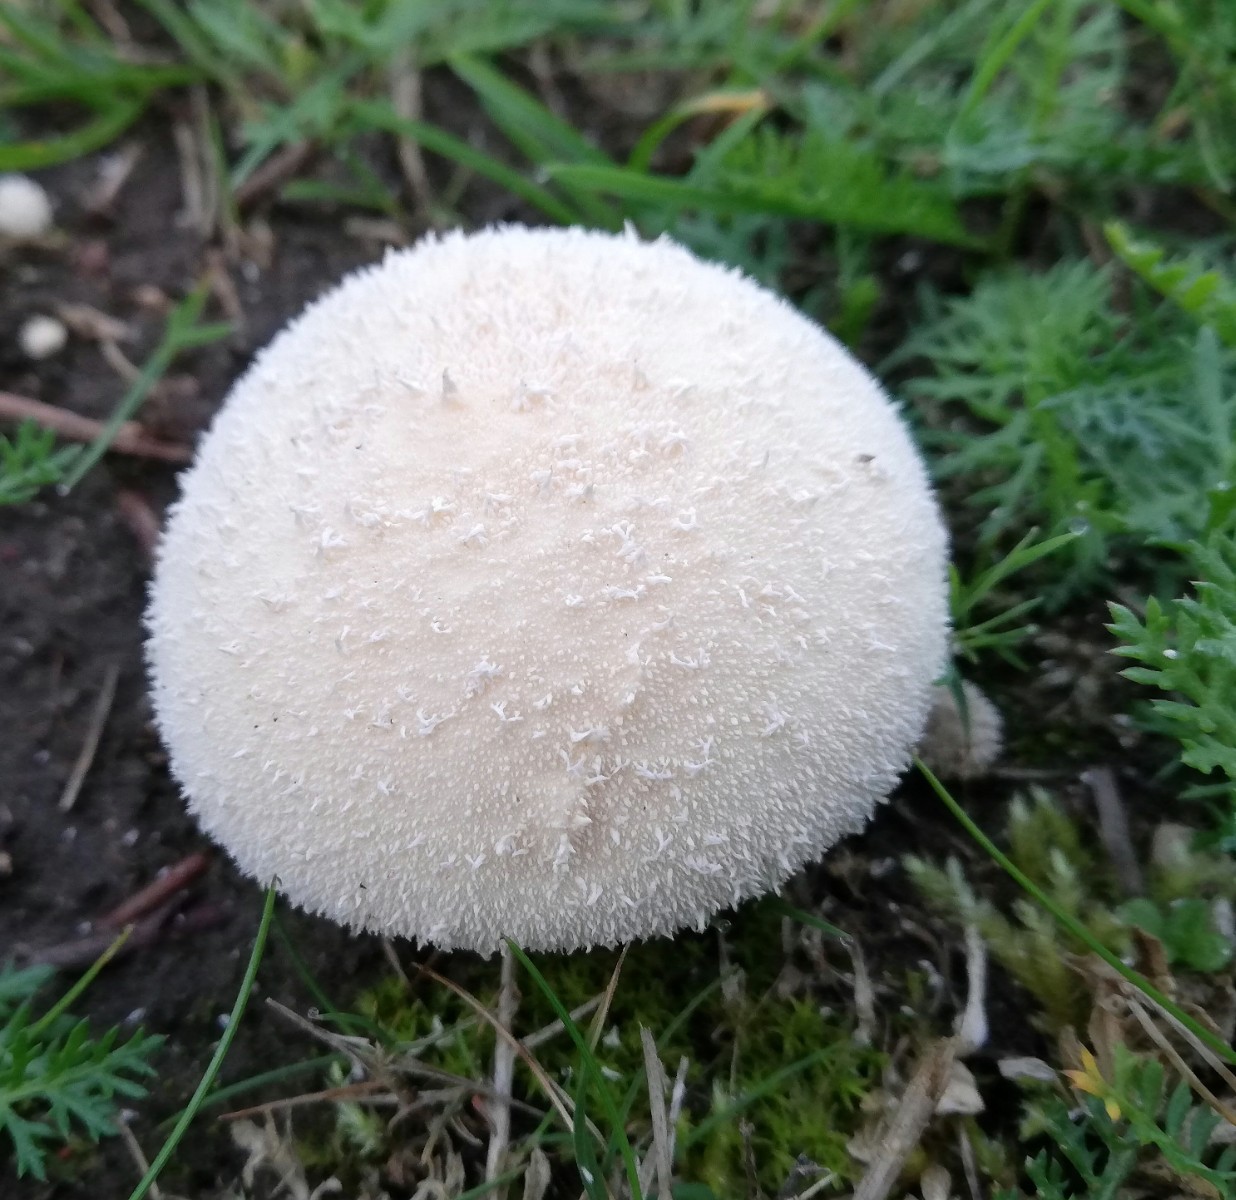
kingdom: Fungi
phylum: Basidiomycota
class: Agaricomycetes
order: Agaricales
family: Lycoperdaceae
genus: Lycoperdon
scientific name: Lycoperdon perlatum
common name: krystal-støvbold
